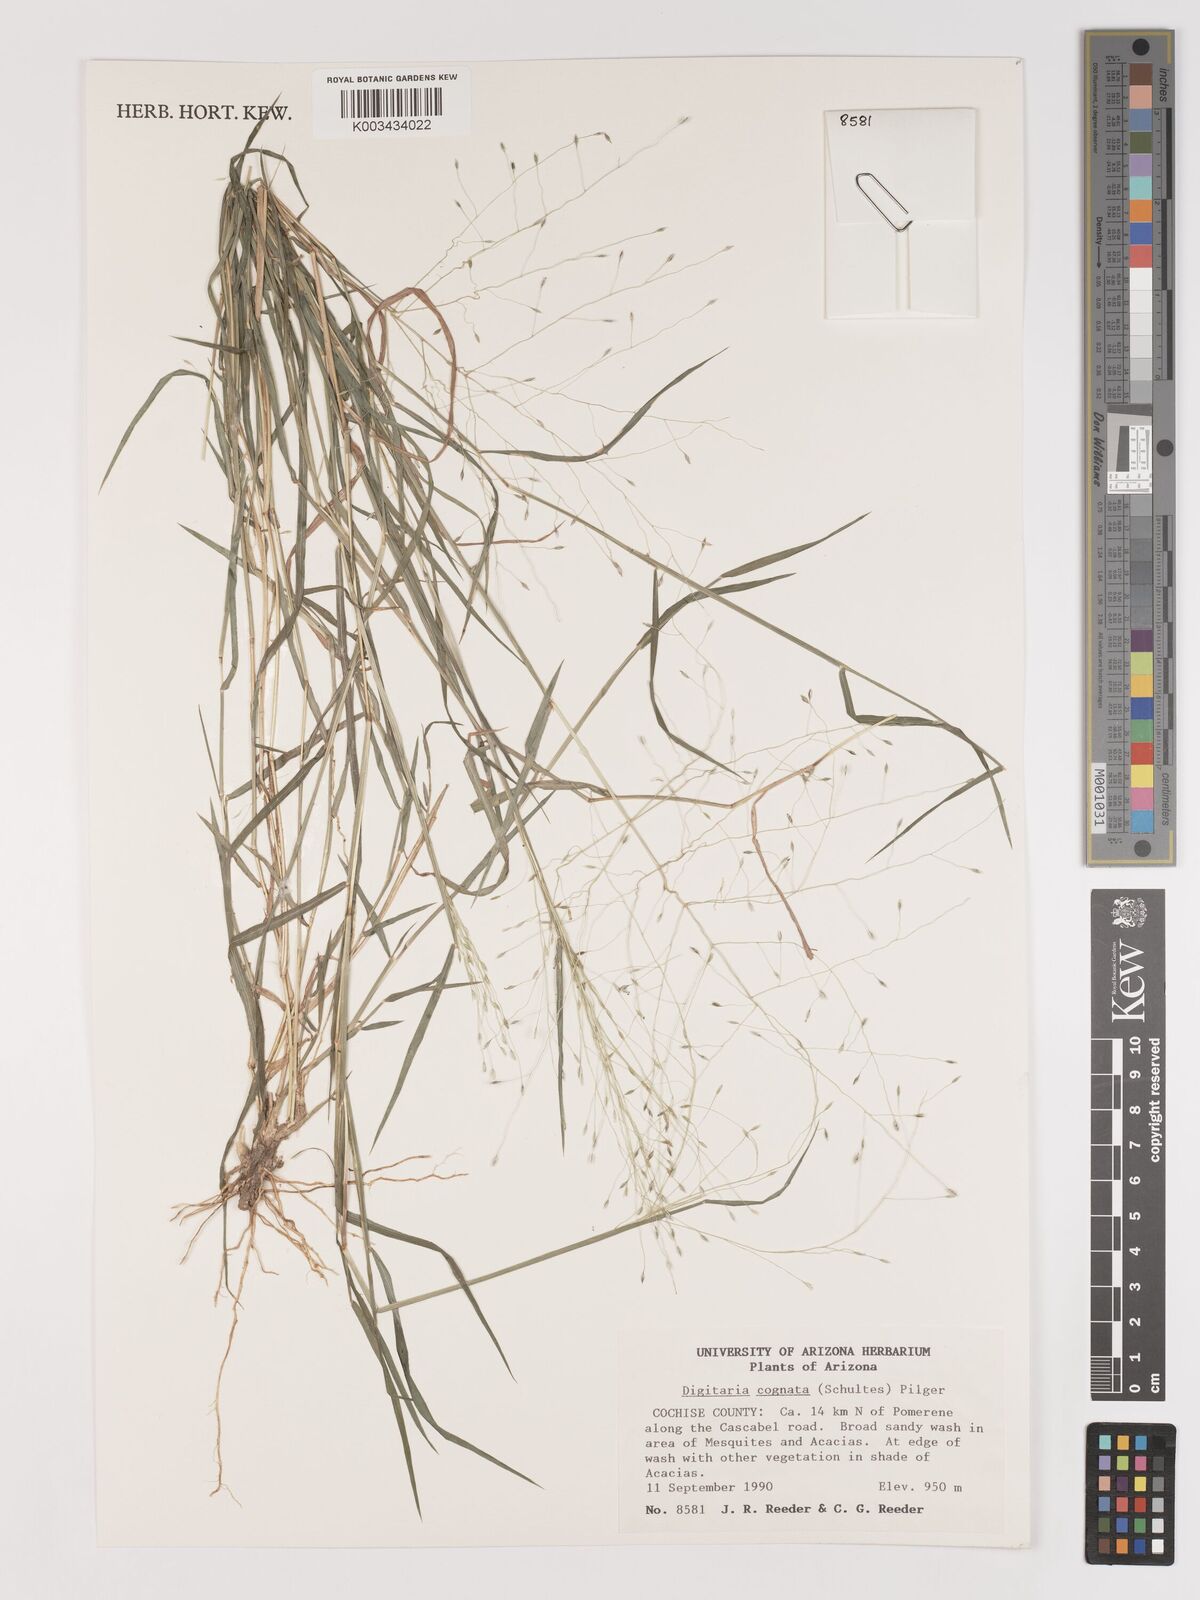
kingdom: Plantae
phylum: Tracheophyta
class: Liliopsida
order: Poales
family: Poaceae
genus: Digitaria
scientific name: Digitaria cognata
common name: Fall witchgrass
